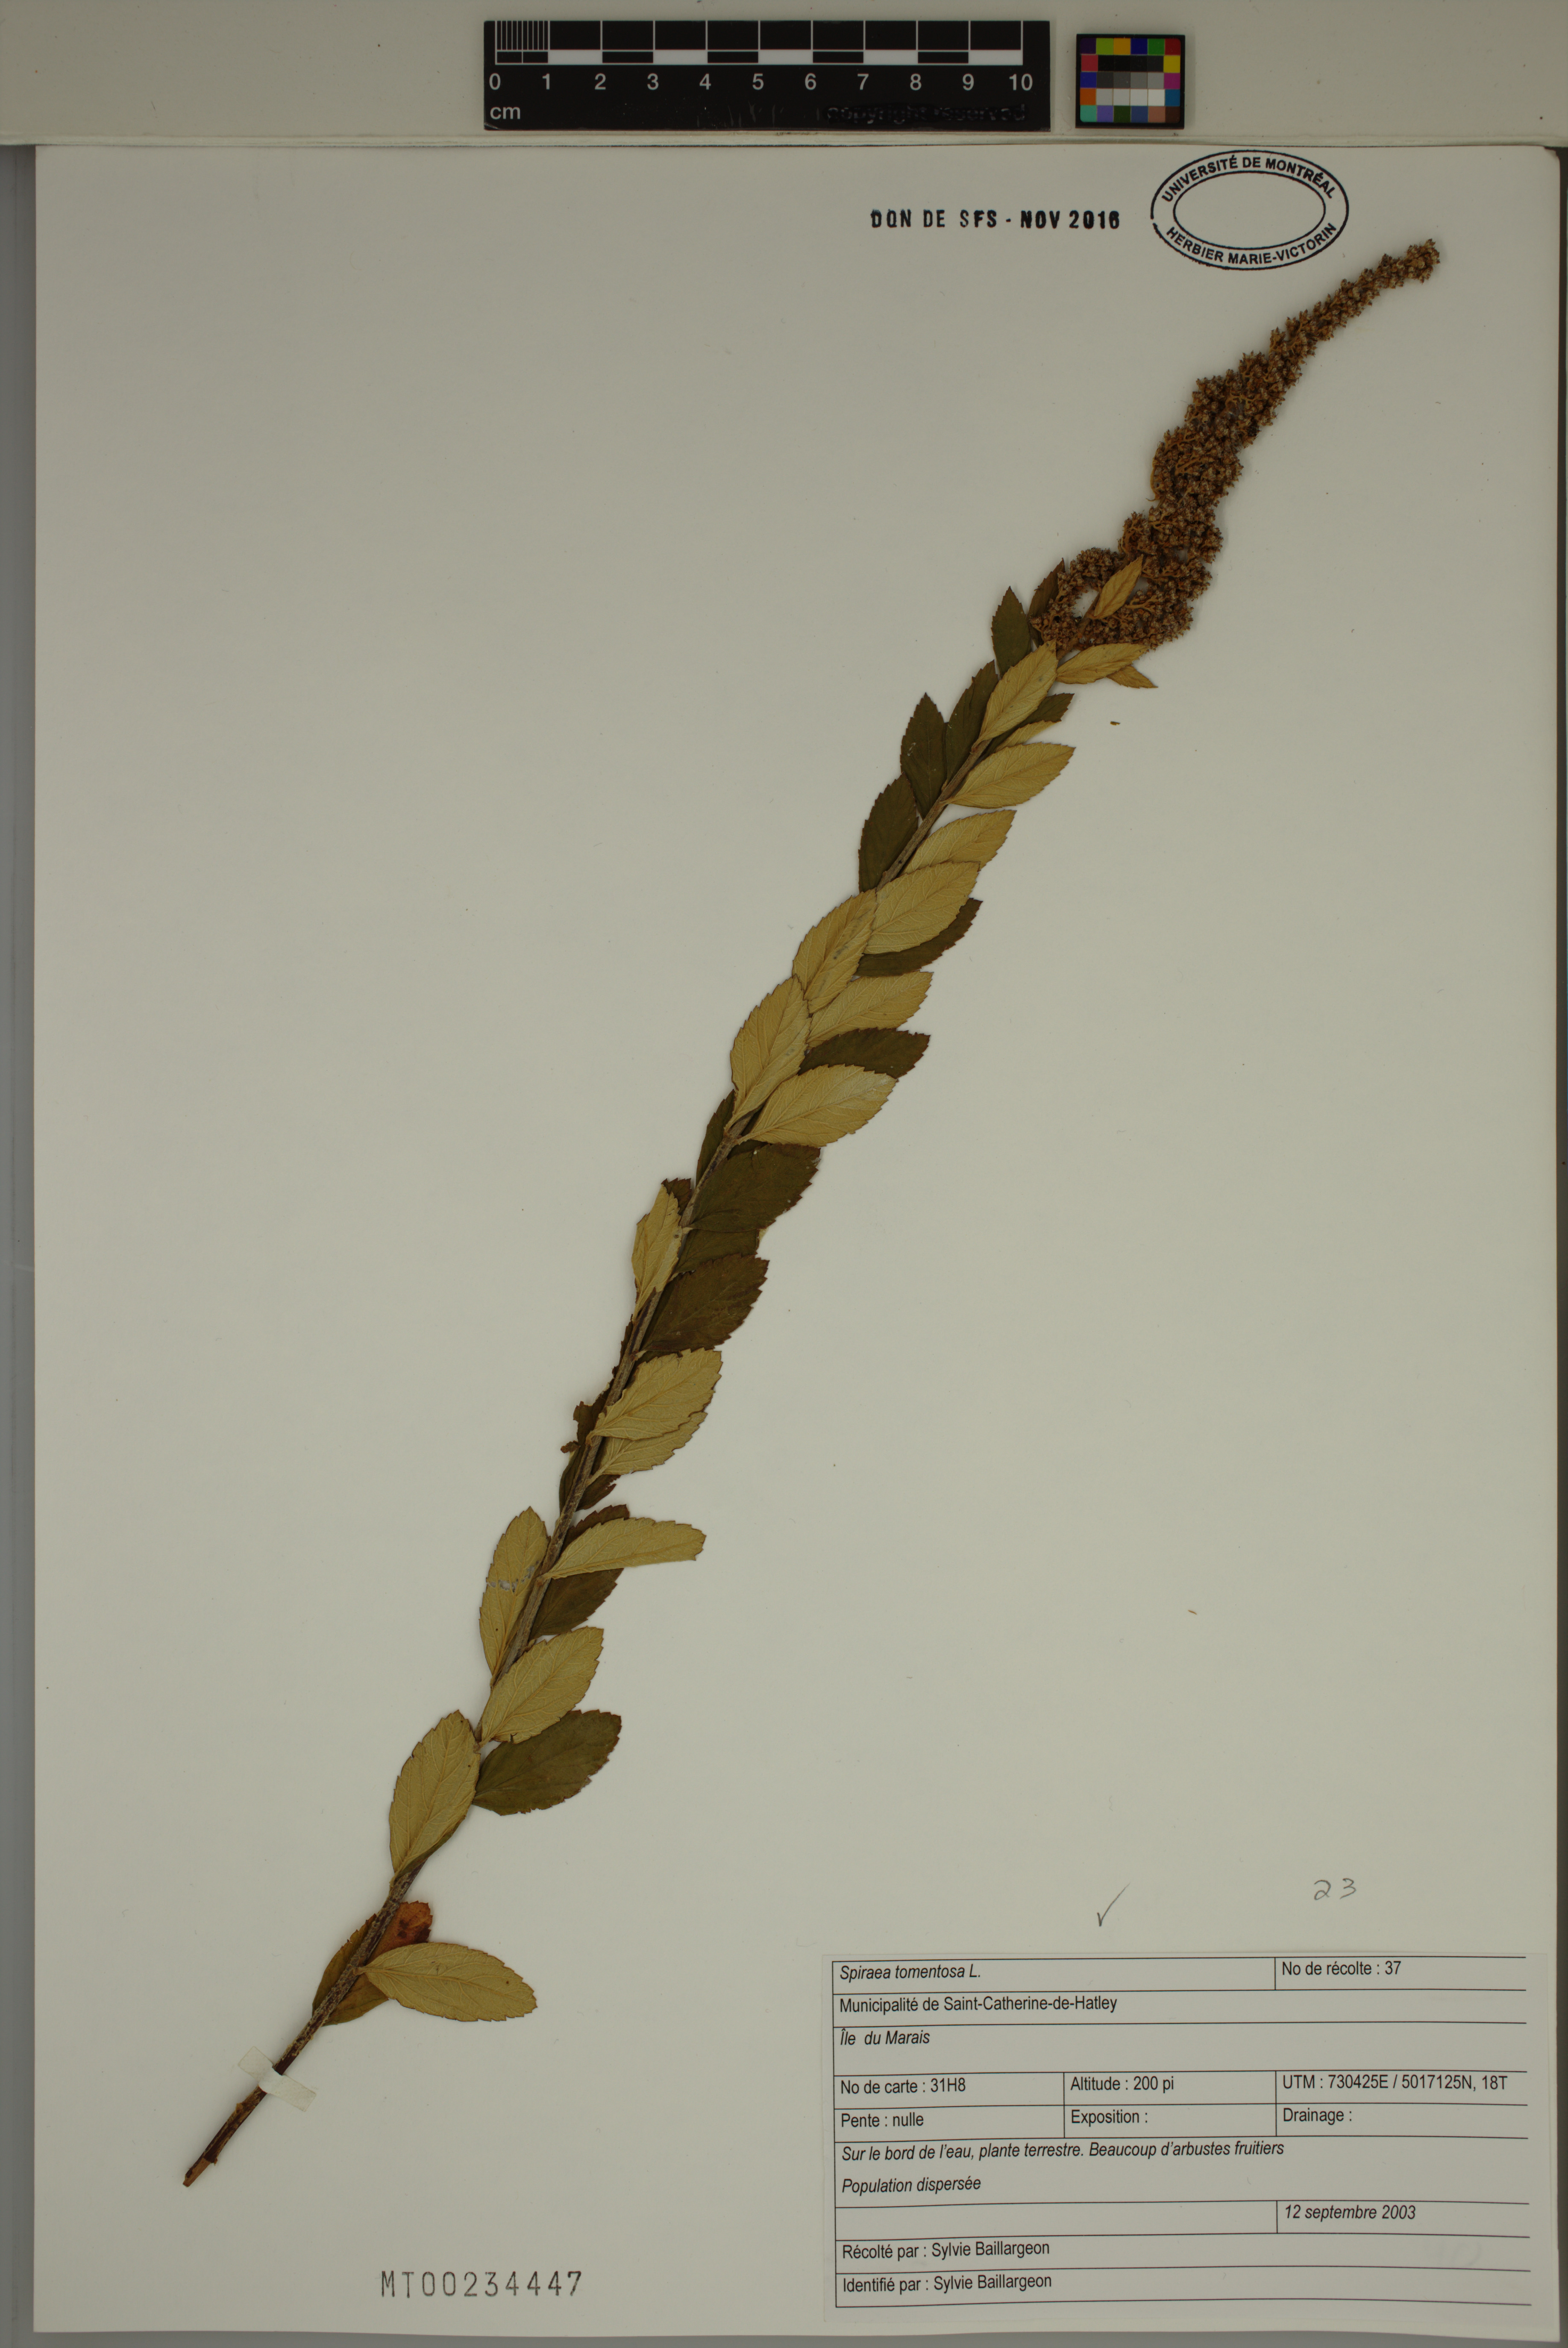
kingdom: Plantae
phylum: Tracheophyta
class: Magnoliopsida
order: Rosales
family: Rosaceae
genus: Spiraea
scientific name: Spiraea tomentosa
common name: Hardhack
